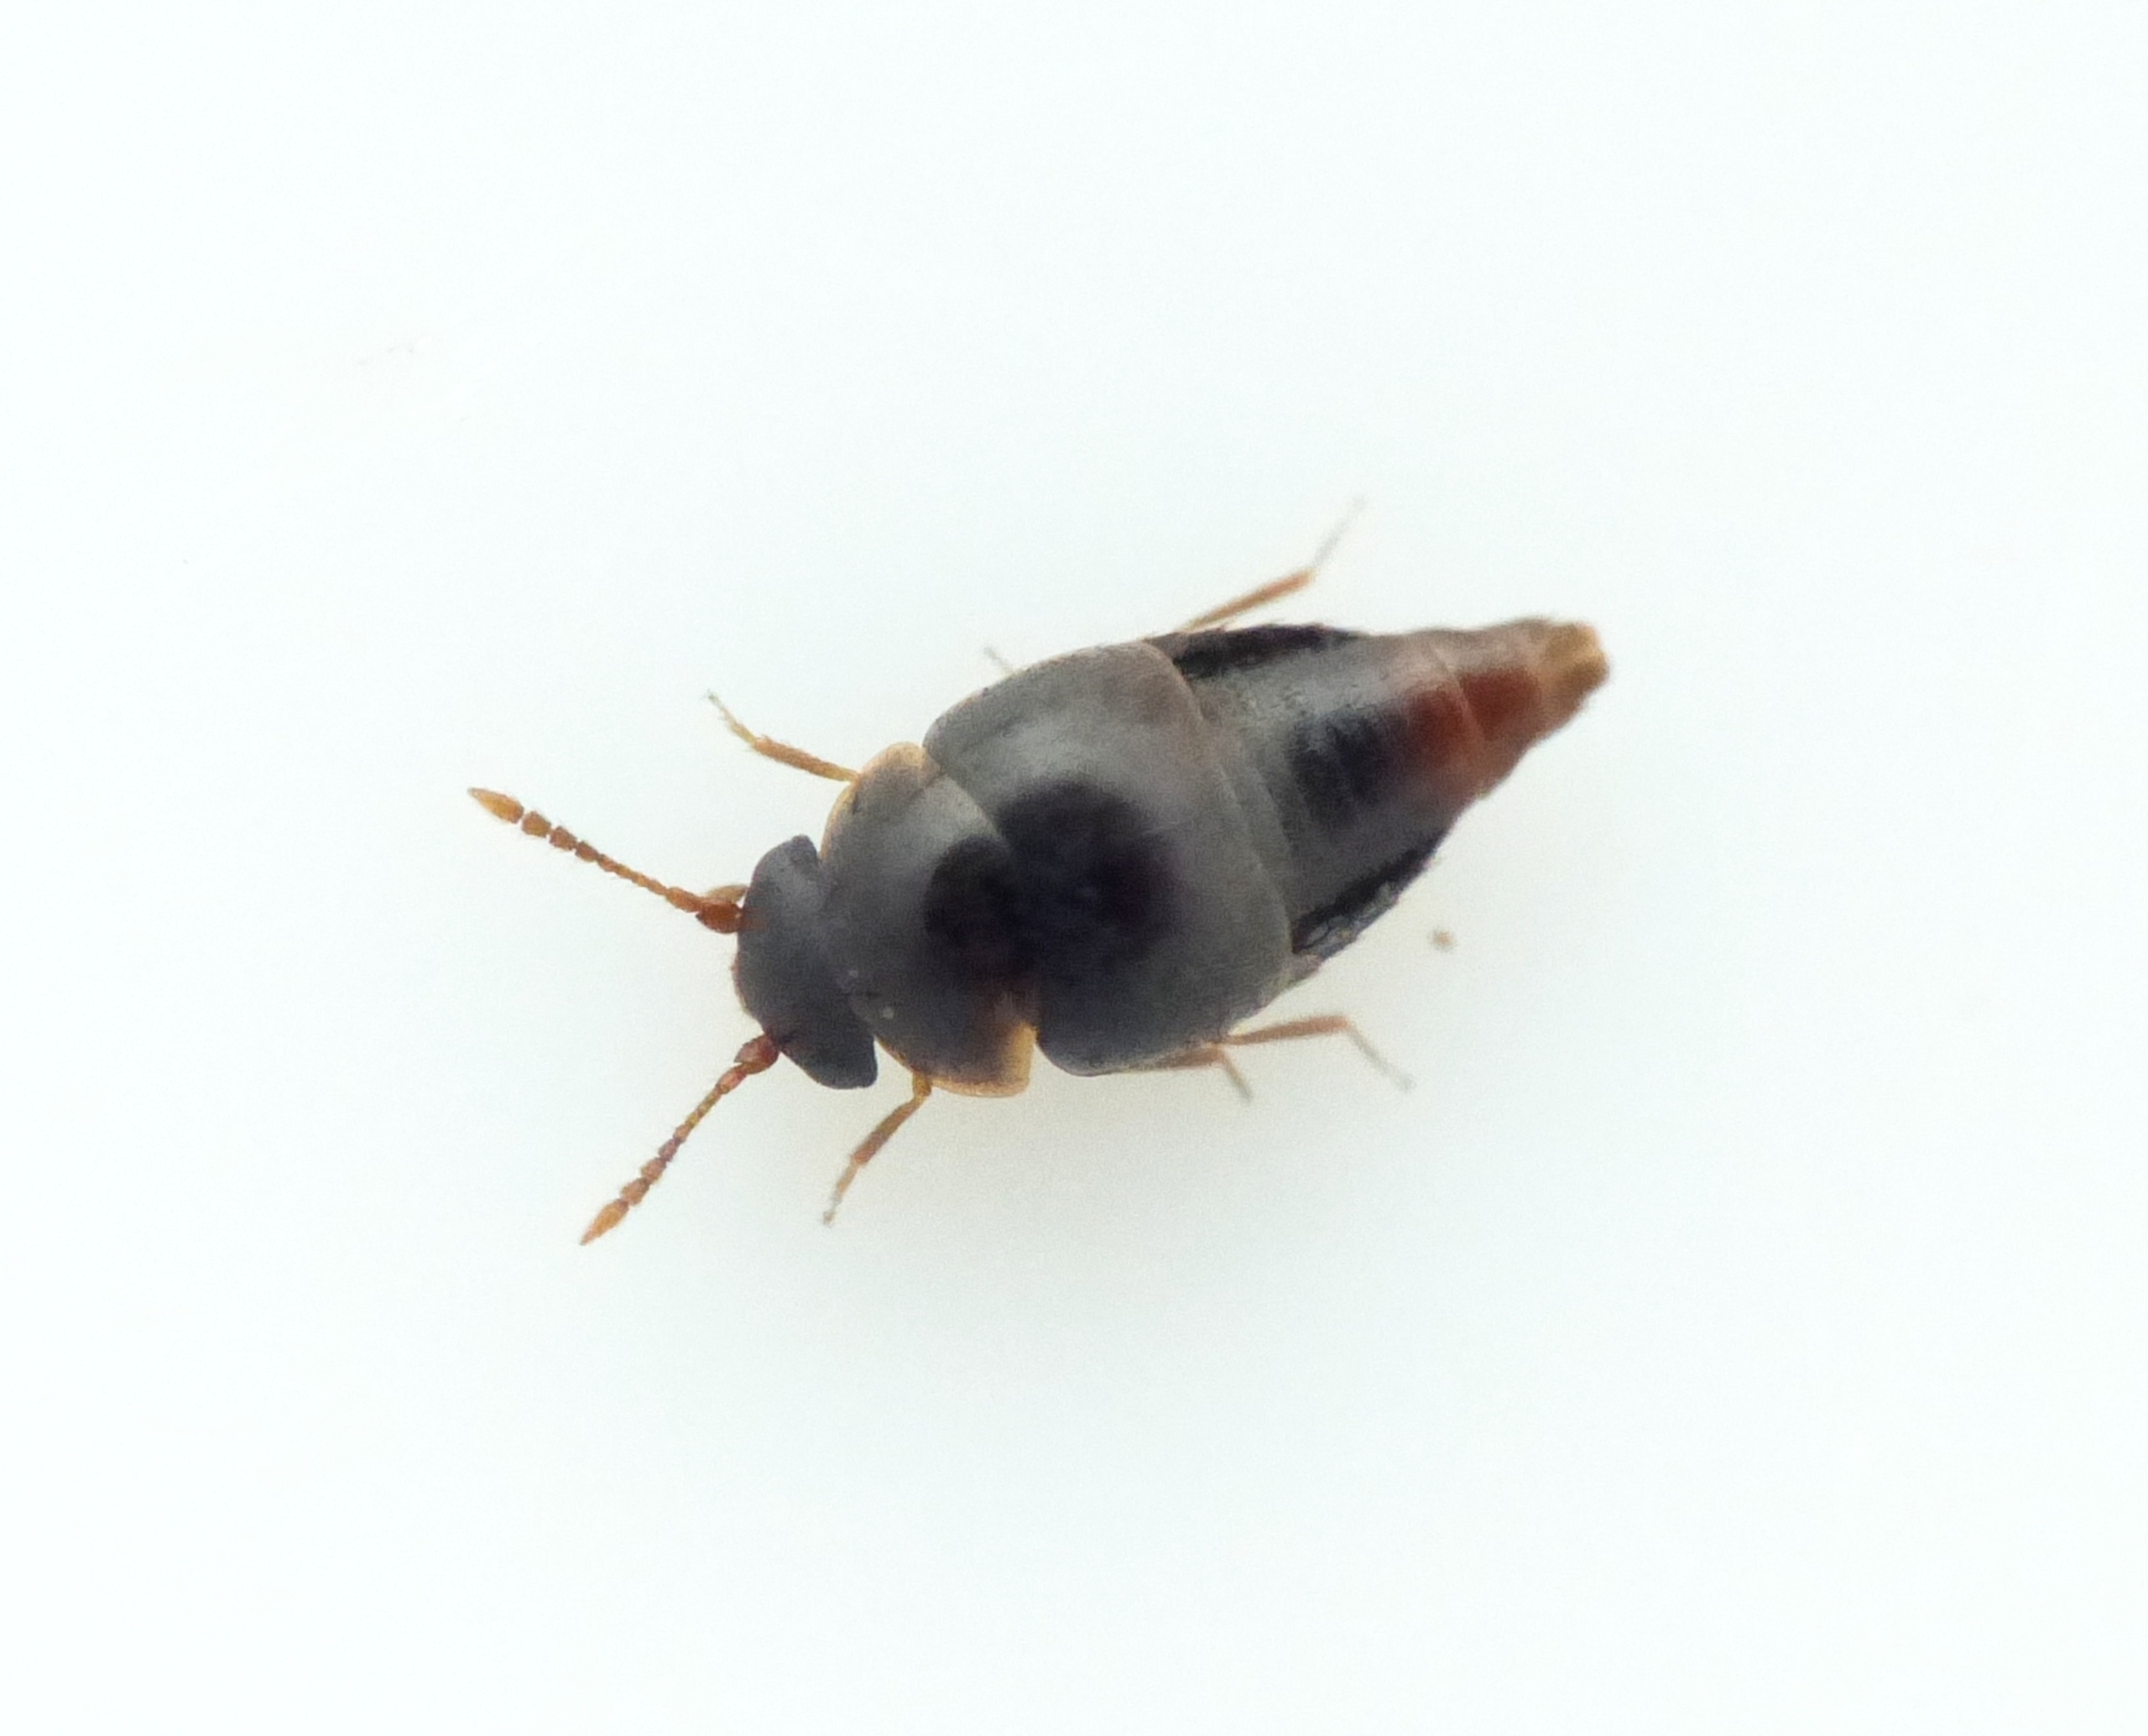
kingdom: Animalia
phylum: Arthropoda
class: Insecta
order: Coleoptera
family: Staphylinidae
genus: Cypha
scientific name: Cypha longicornis
